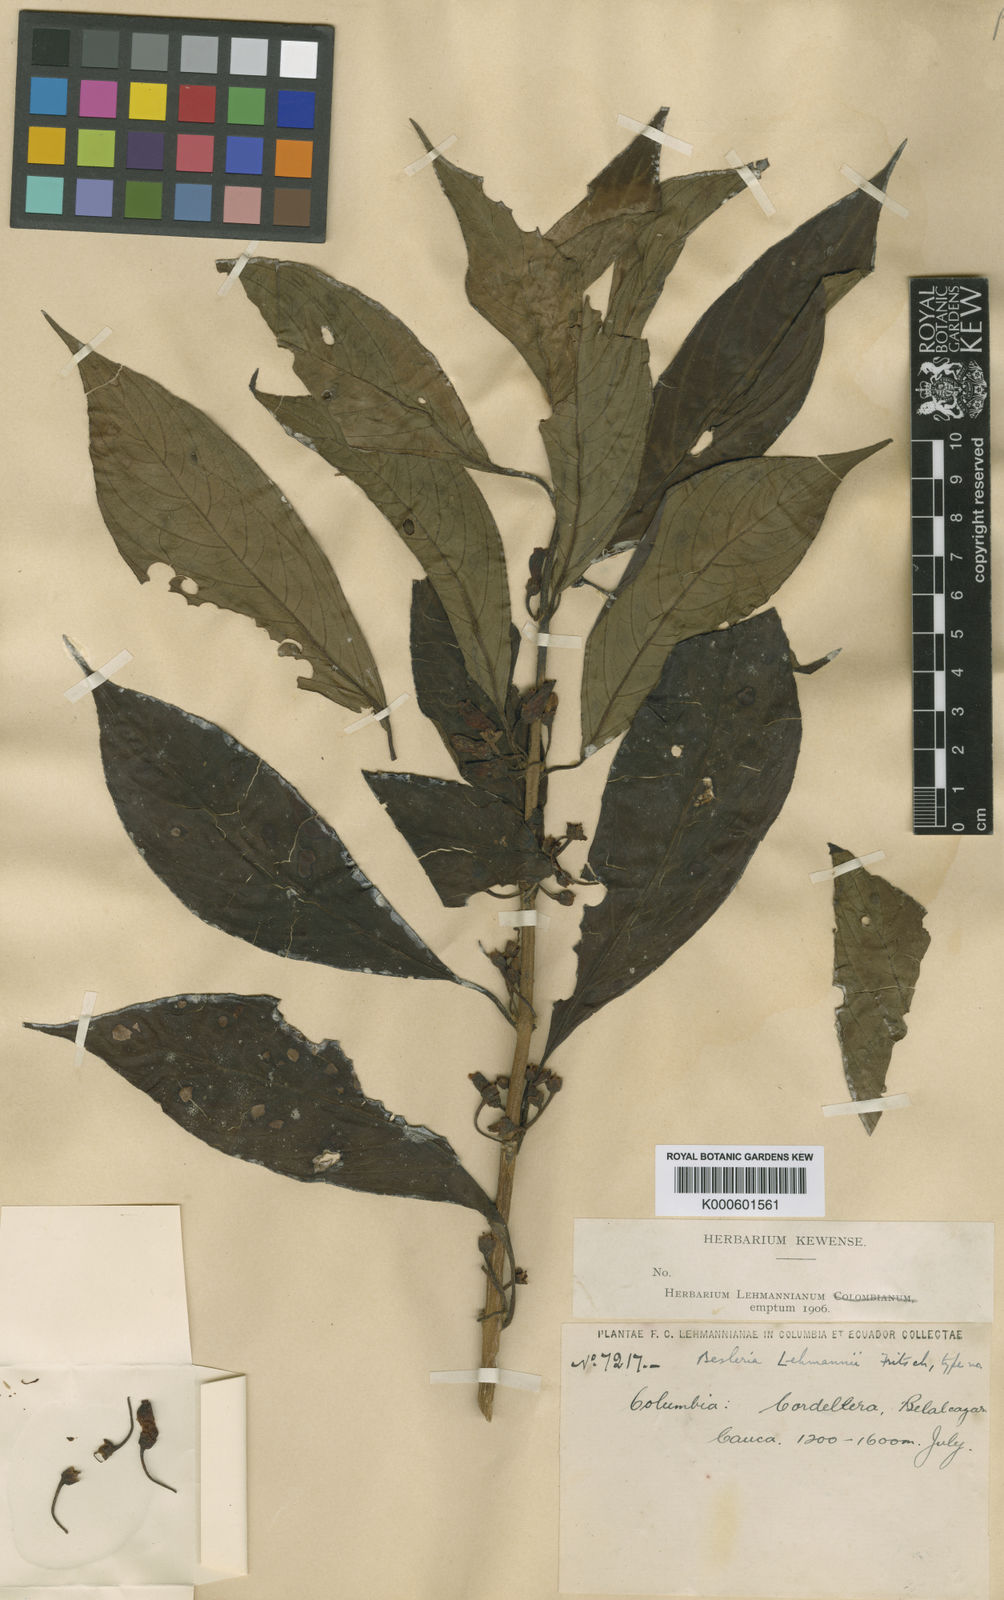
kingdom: Plantae
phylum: Tracheophyta
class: Magnoliopsida
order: Lamiales
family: Gesneriaceae
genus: Besleria
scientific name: Besleria lehmannii
